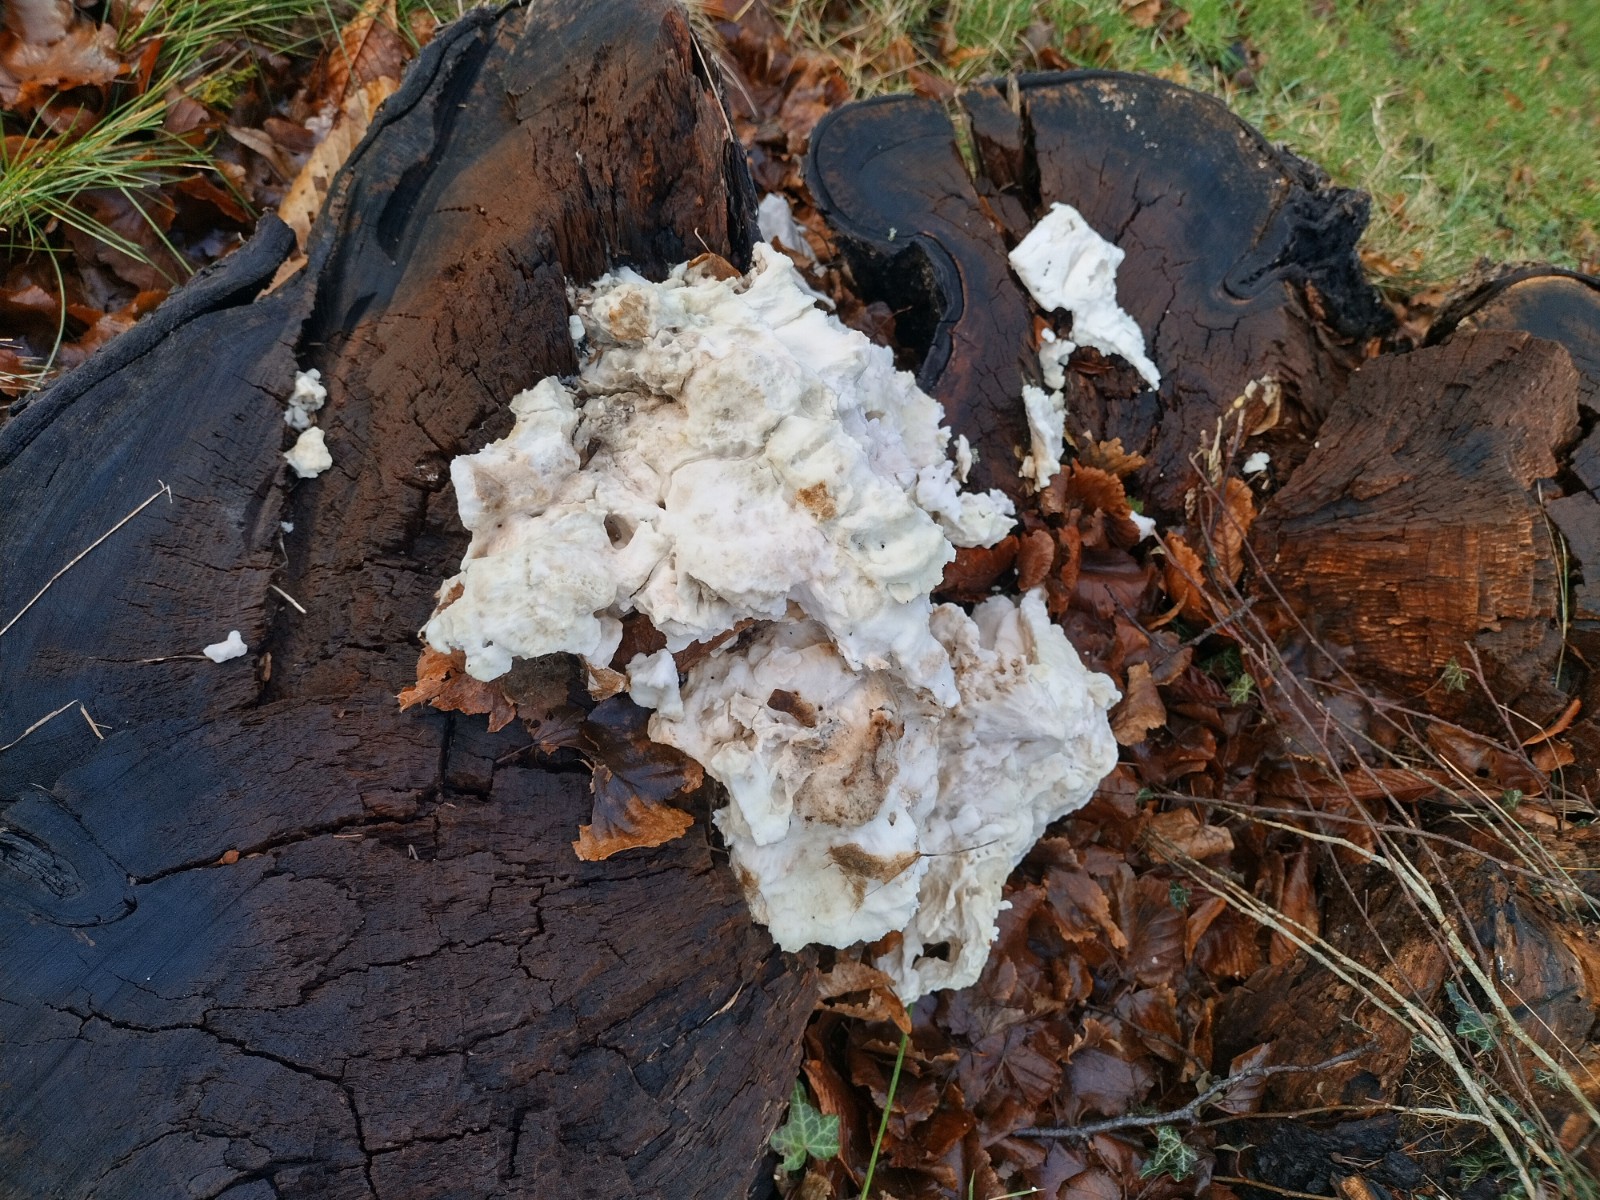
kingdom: Fungi
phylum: Basidiomycota
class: Agaricomycetes
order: Polyporales
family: Laetiporaceae
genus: Laetiporus
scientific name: Laetiporus sulphureus
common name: svovlporesvamp
